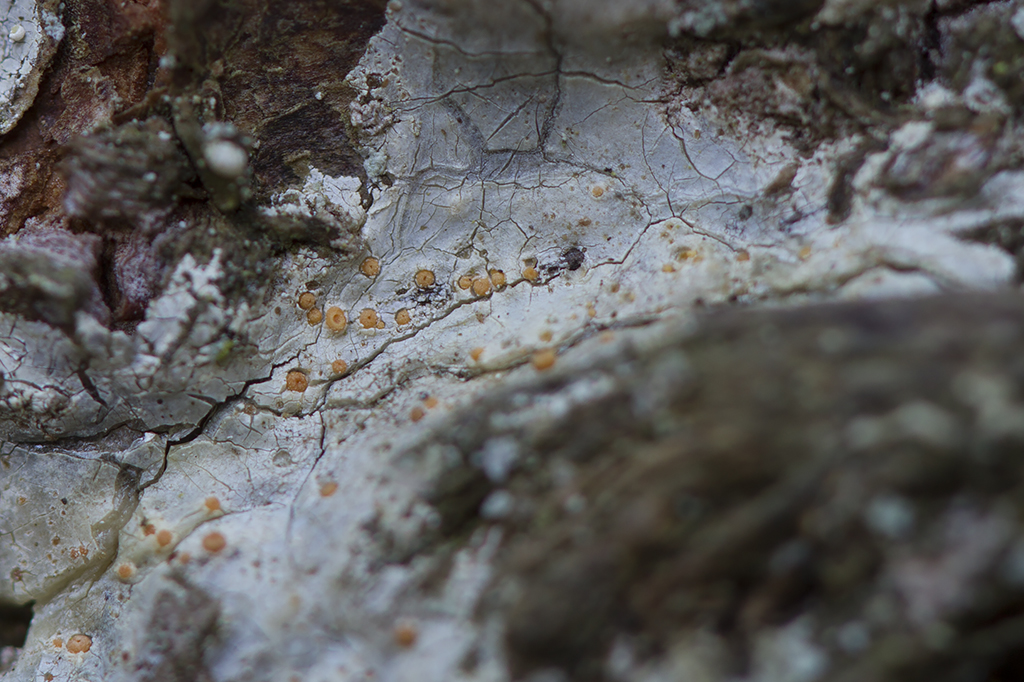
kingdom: Fungi
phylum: Ascomycota
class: Sareomycetes
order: Sareales
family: Sareaceae
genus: Sarea
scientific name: Sarea resinae
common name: orangegul harpiksskive
